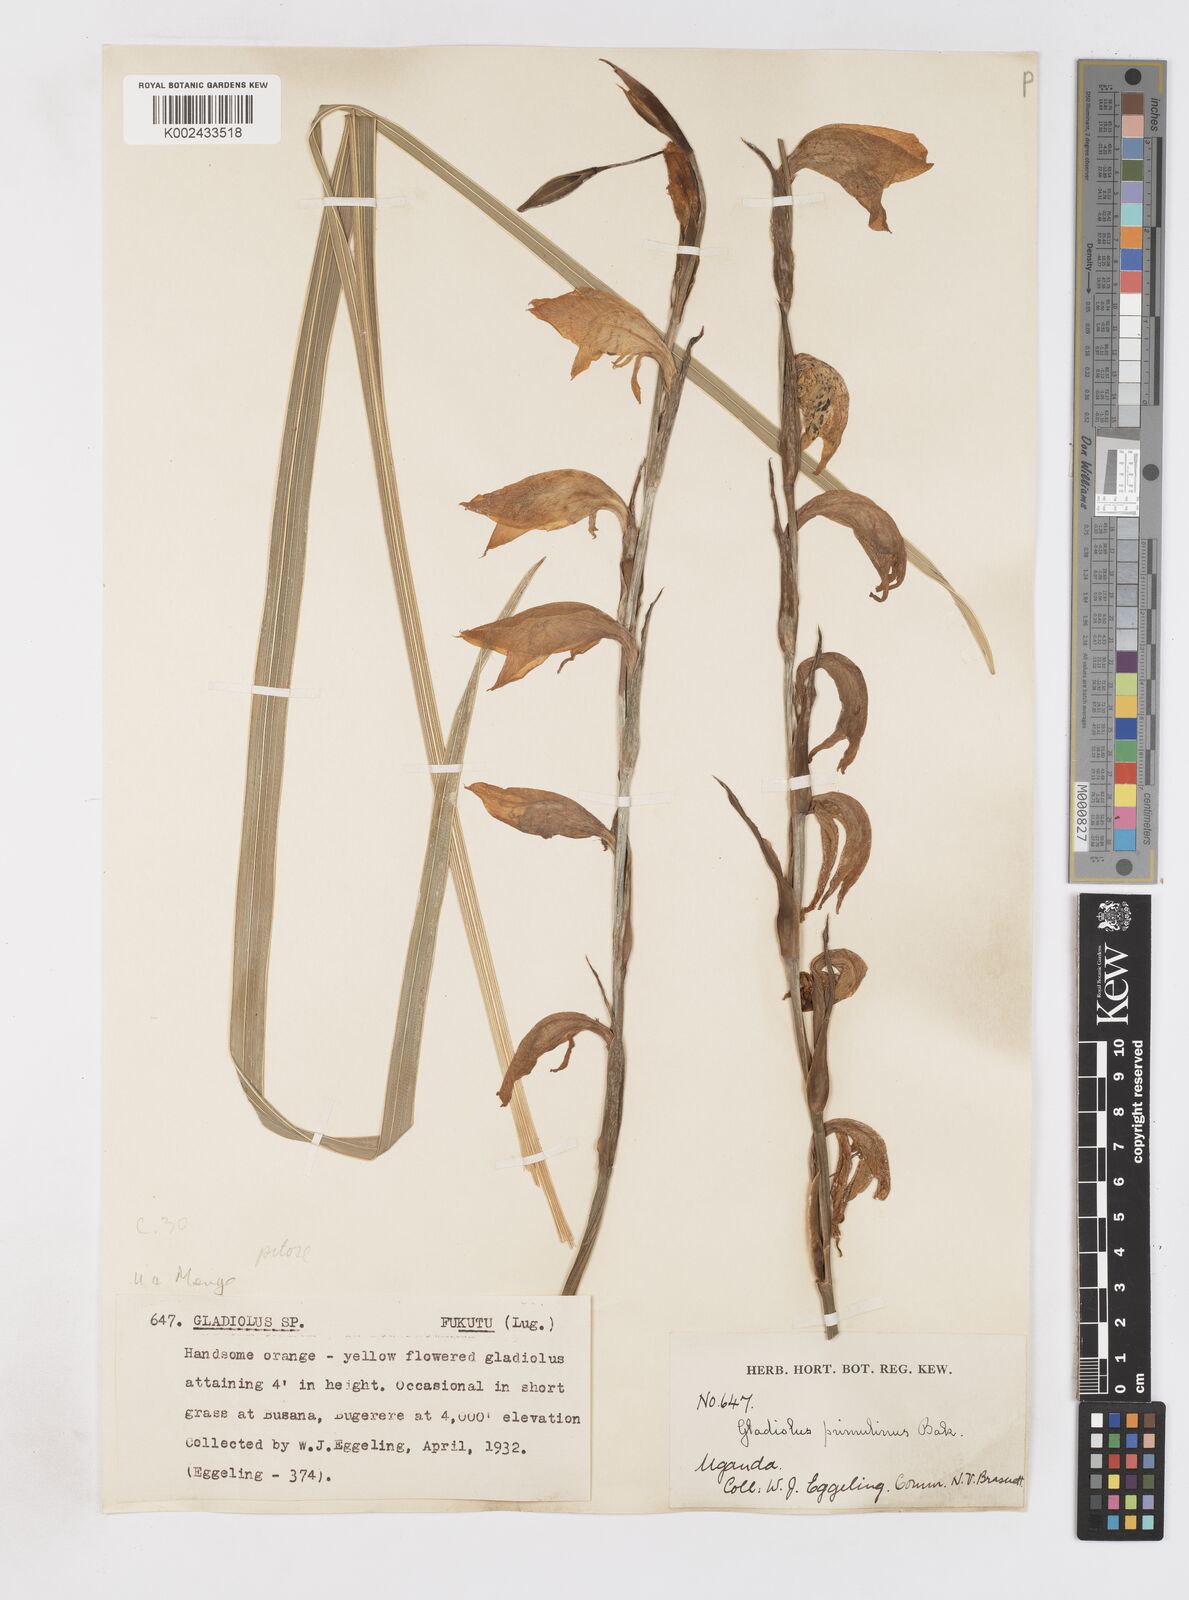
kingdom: Plantae
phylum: Tracheophyta
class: Liliopsida
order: Asparagales
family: Iridaceae
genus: Gladiolus
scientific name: Gladiolus dalenii
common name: Cornflag
